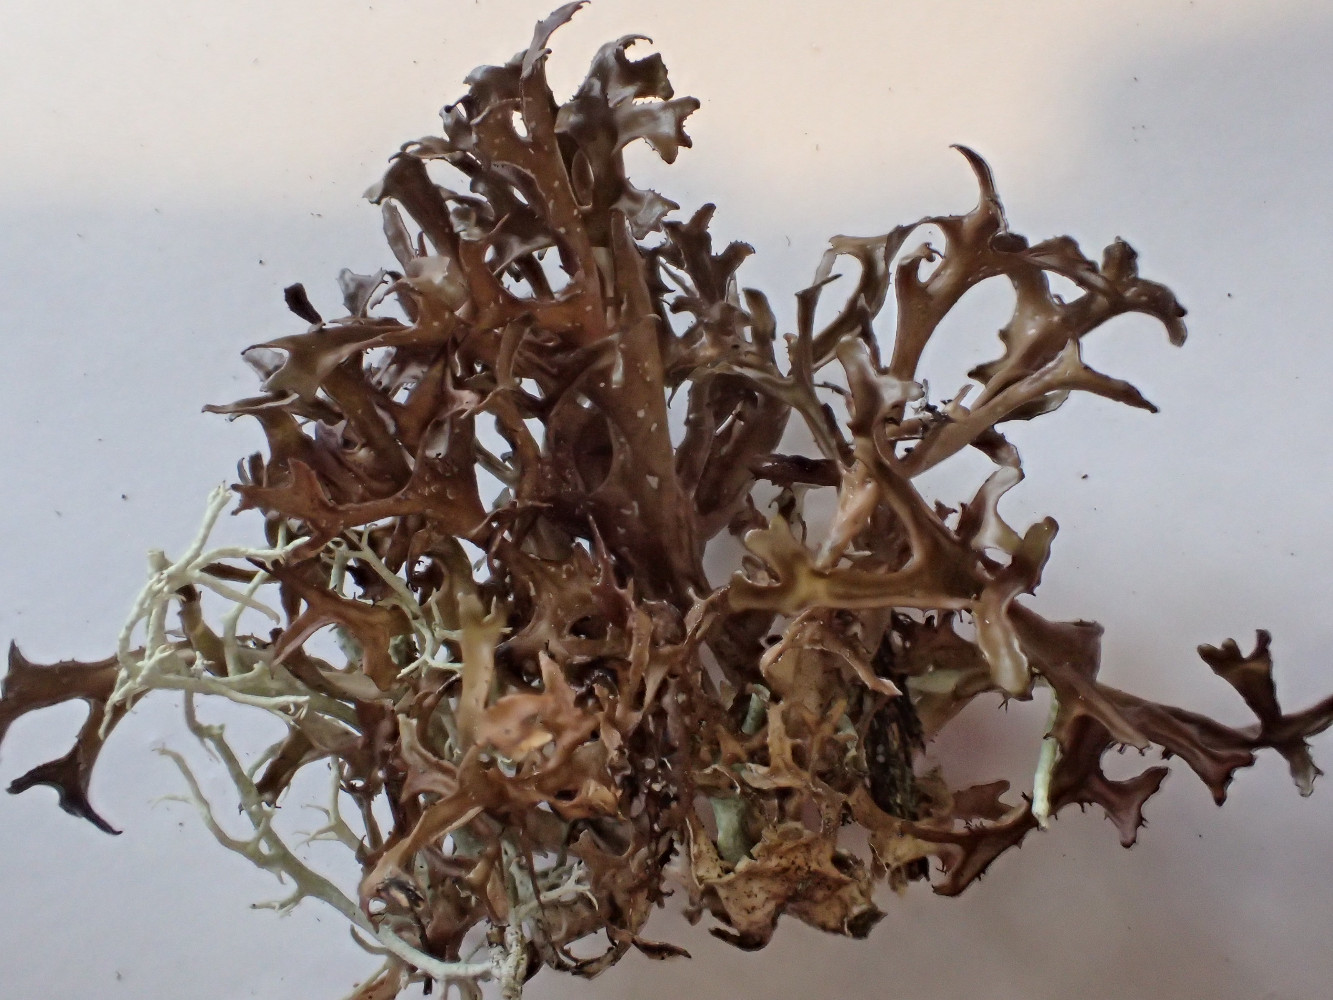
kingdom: Fungi
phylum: Ascomycota
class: Lecanoromycetes
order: Lecanorales
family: Parmeliaceae
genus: Cetraria
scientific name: Cetraria islandica
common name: islandsk kruslav
